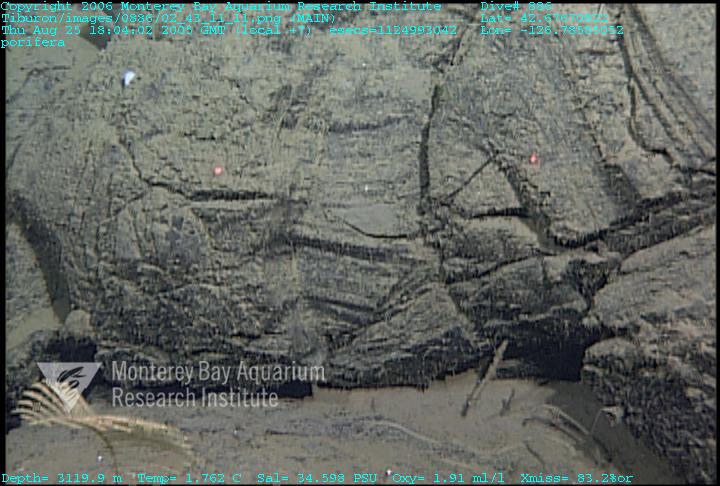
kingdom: Animalia
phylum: Porifera
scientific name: Porifera
